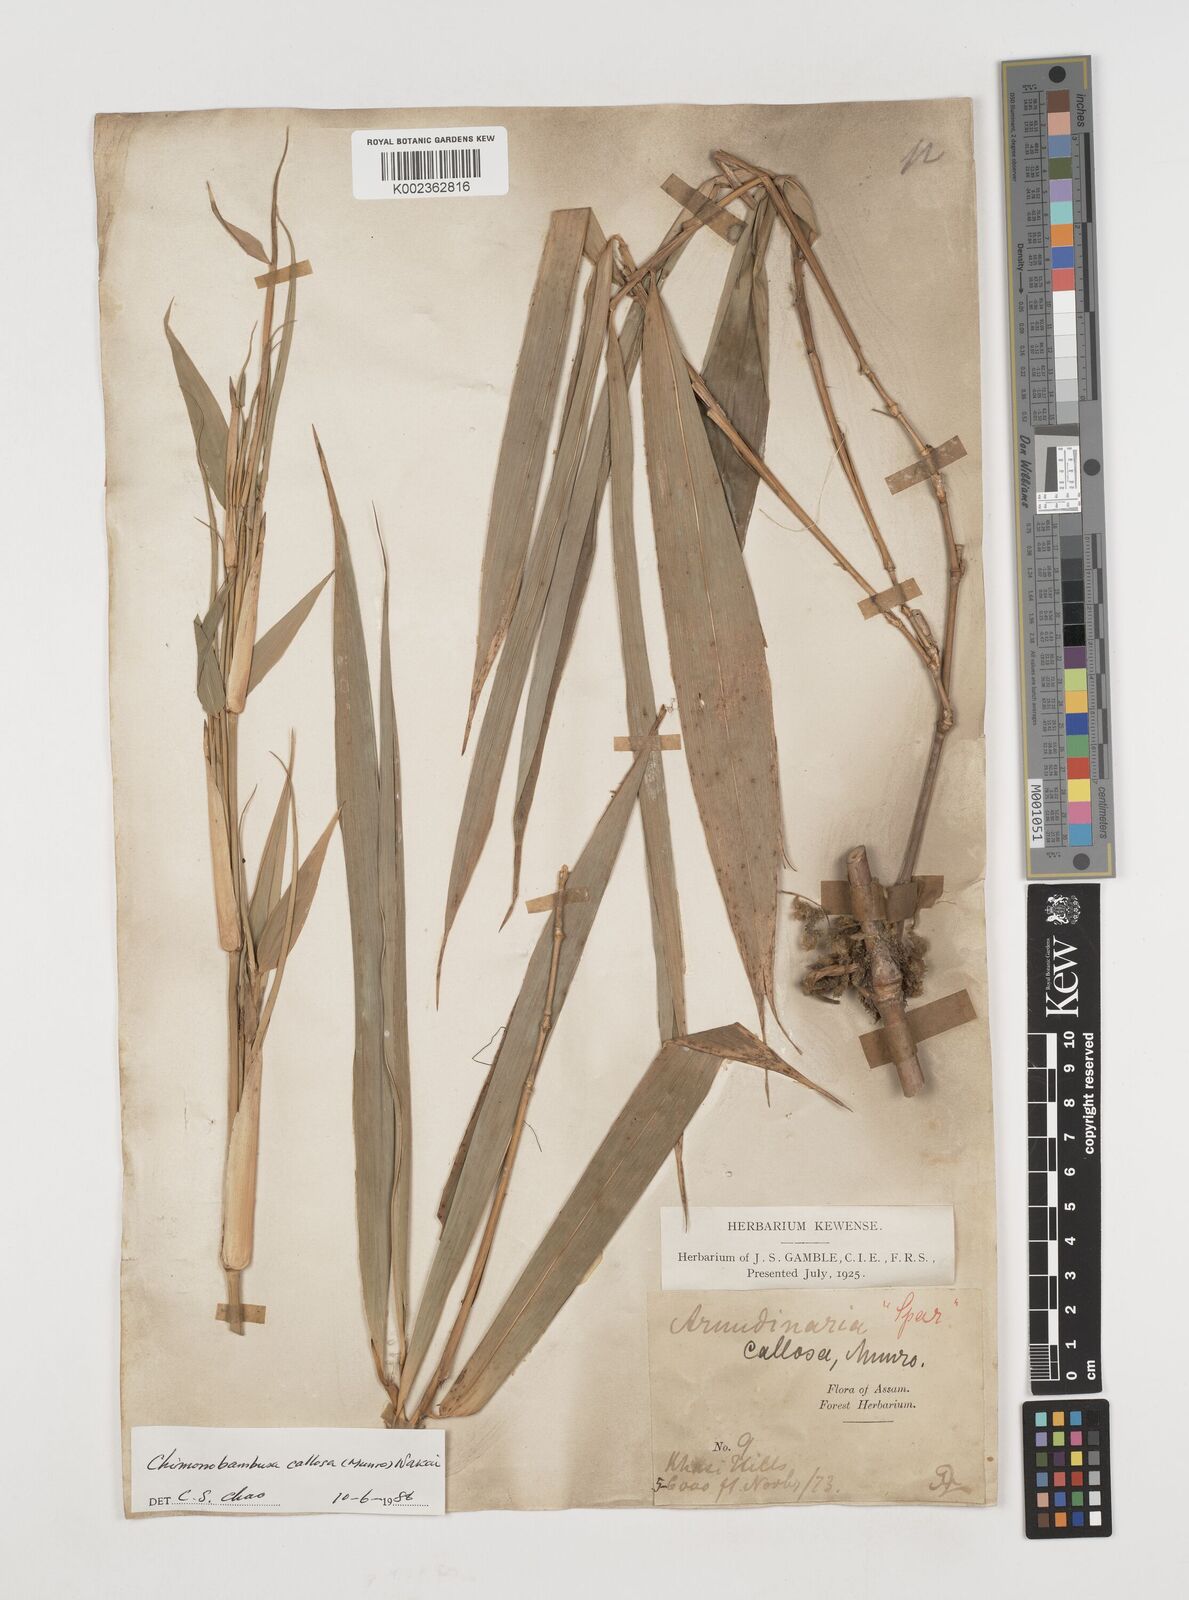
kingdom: Plantae
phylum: Tracheophyta
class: Liliopsida
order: Poales
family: Poaceae
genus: Chimonobambusa
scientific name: Chimonobambusa callosa
